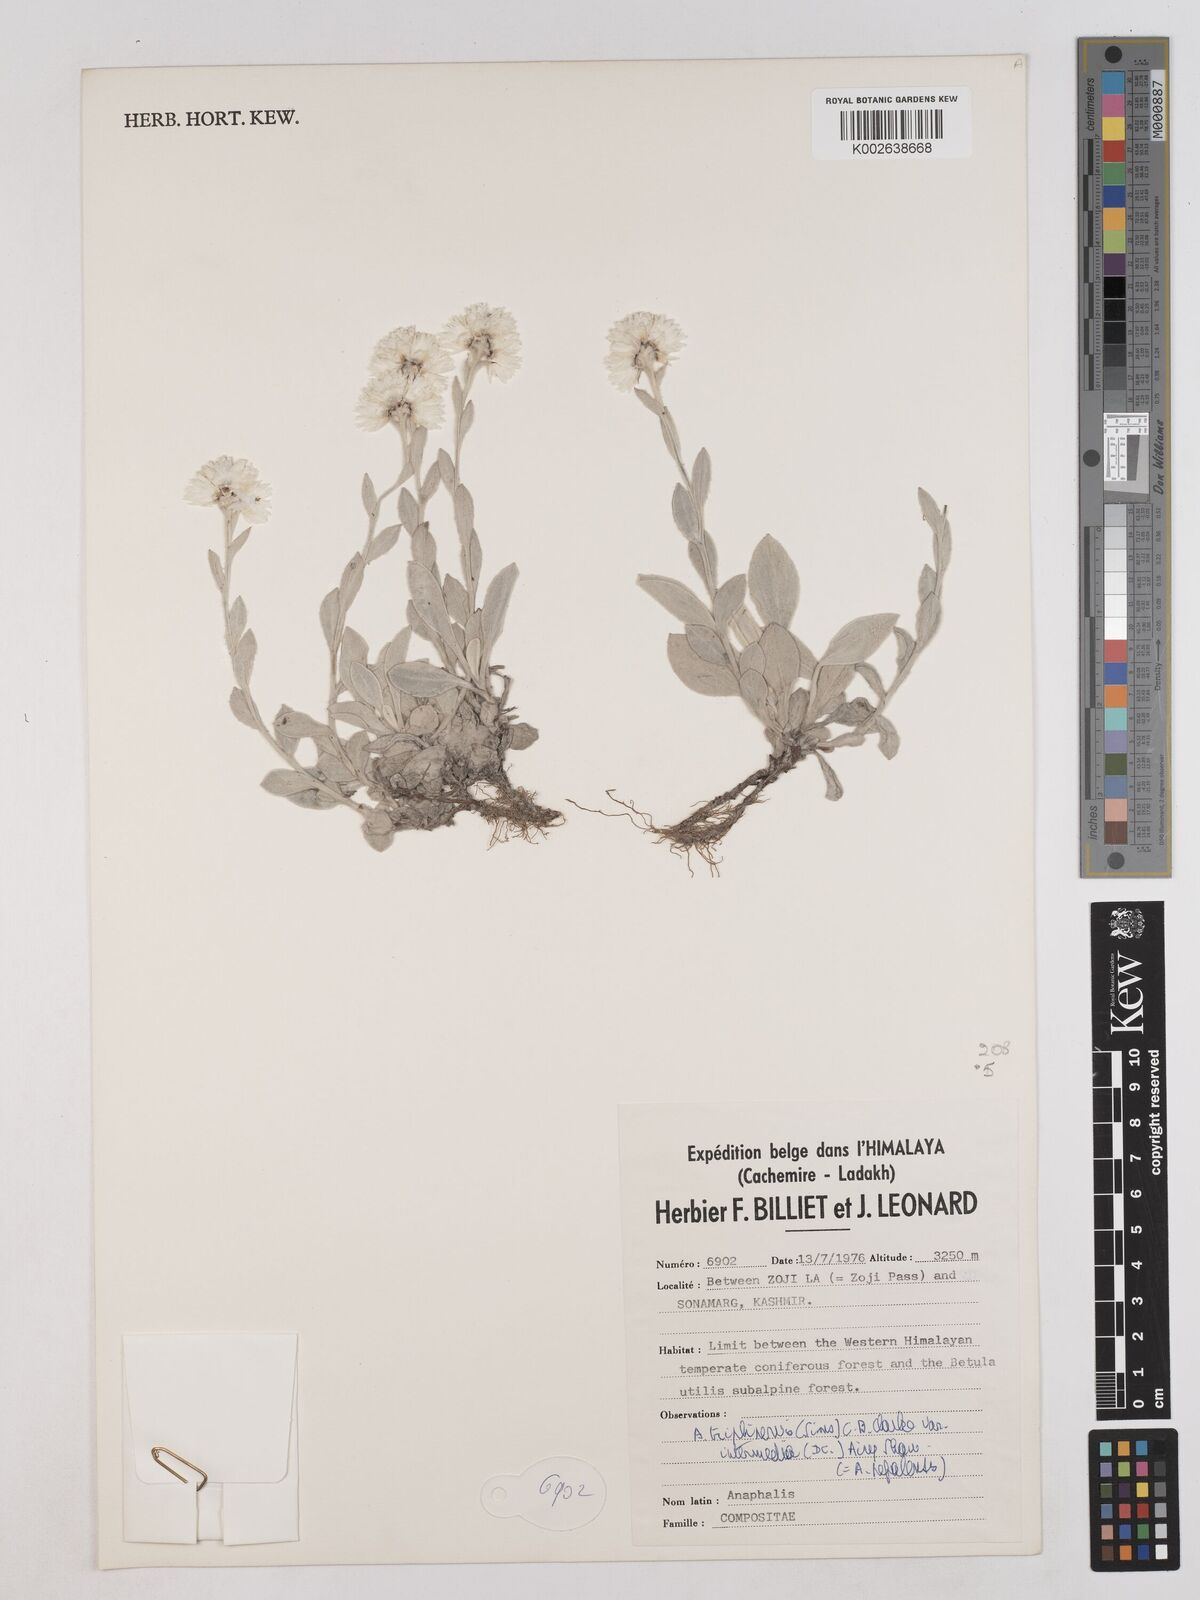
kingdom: Plantae
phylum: Tracheophyta
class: Magnoliopsida
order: Asterales
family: Asteraceae
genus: Anaphalioides
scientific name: Anaphalioides trinervis
